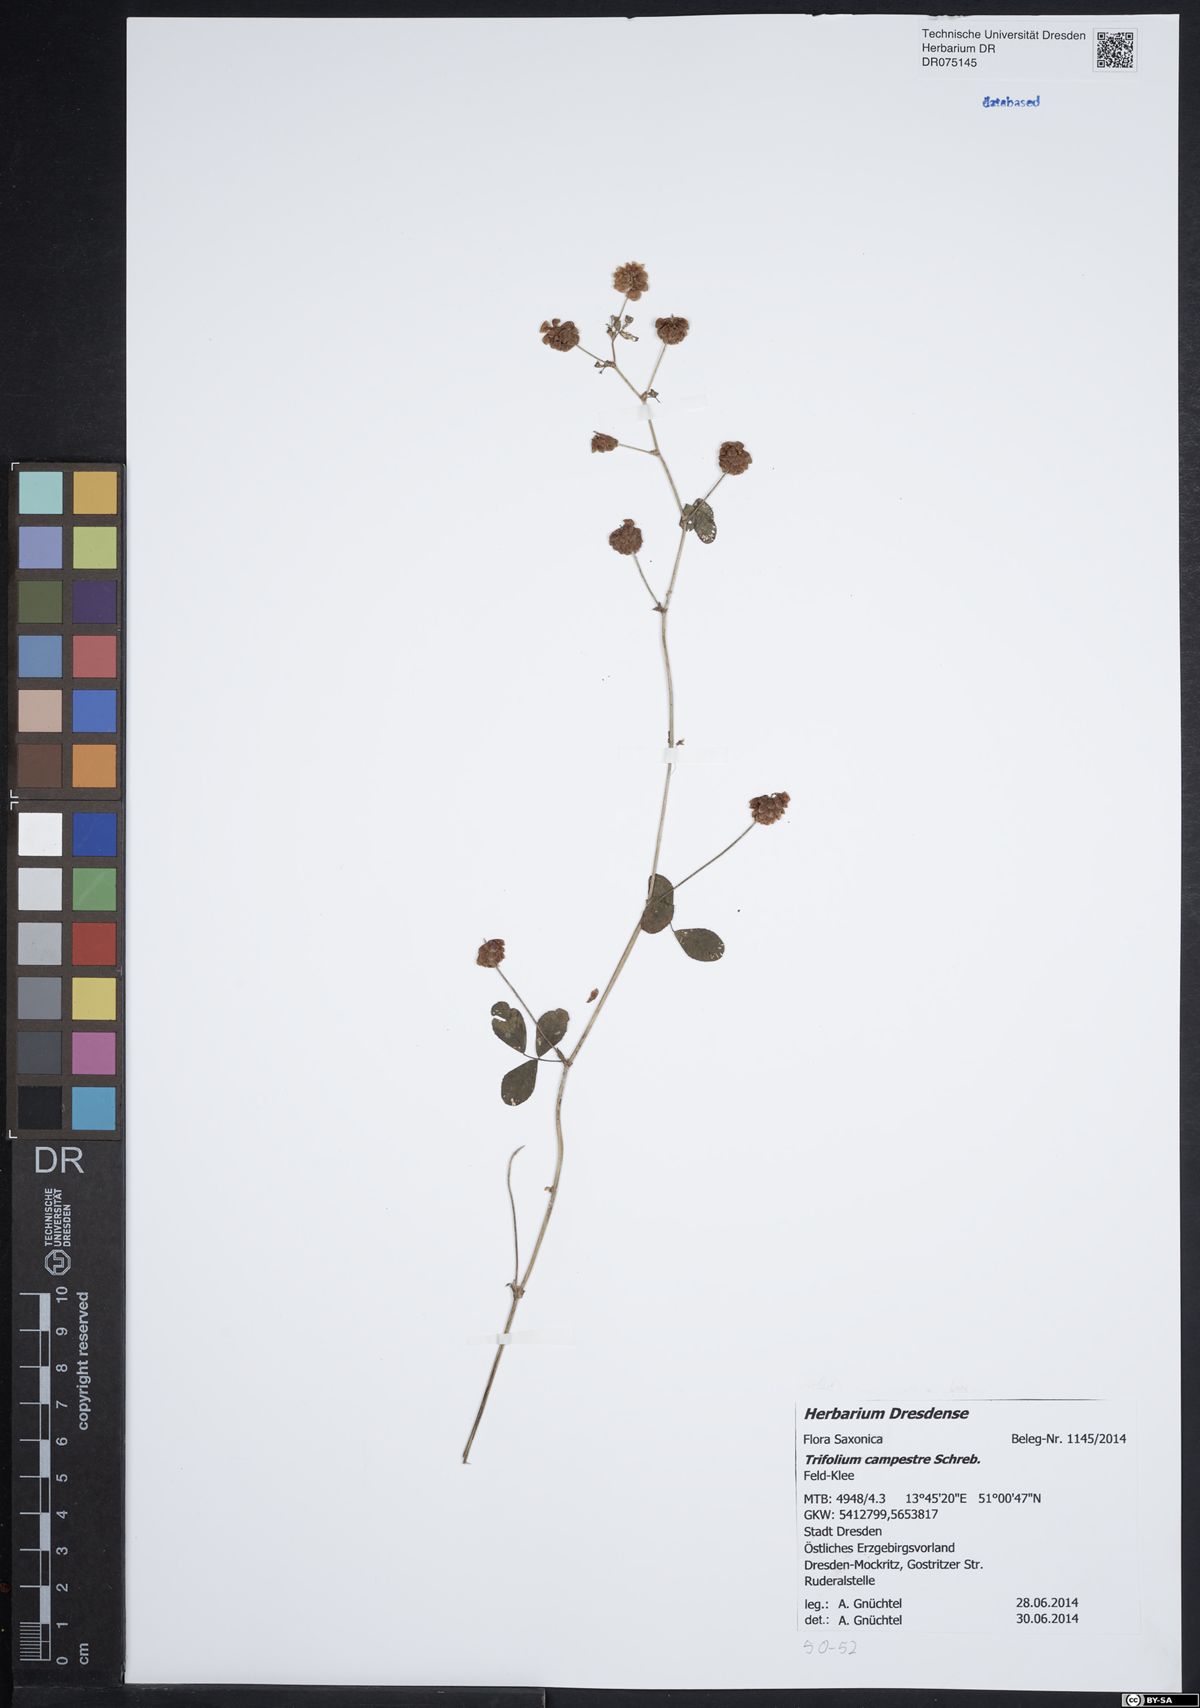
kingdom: Plantae
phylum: Tracheophyta
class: Magnoliopsida
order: Fabales
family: Fabaceae
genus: Trifolium
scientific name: Trifolium campestre
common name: Field clover
